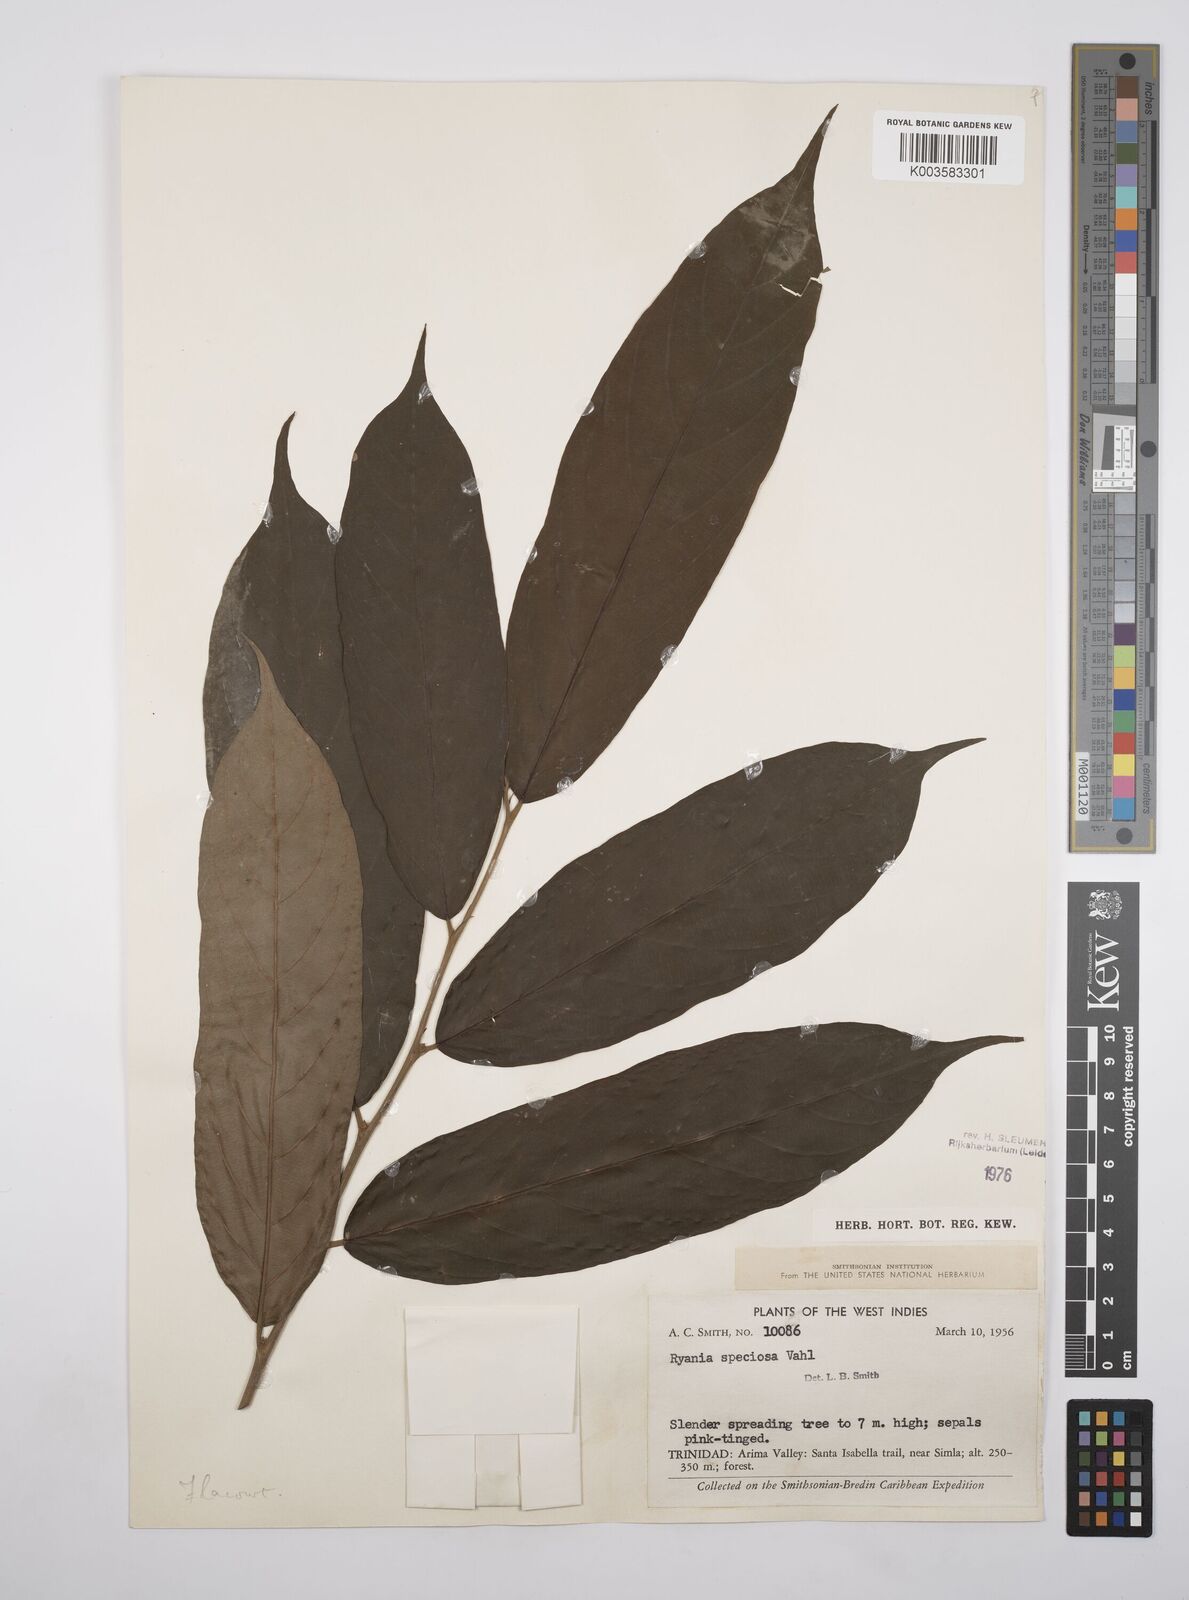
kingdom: Plantae
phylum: Tracheophyta
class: Magnoliopsida
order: Malpighiales
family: Salicaceae
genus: Ryania
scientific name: Ryania speciosa
